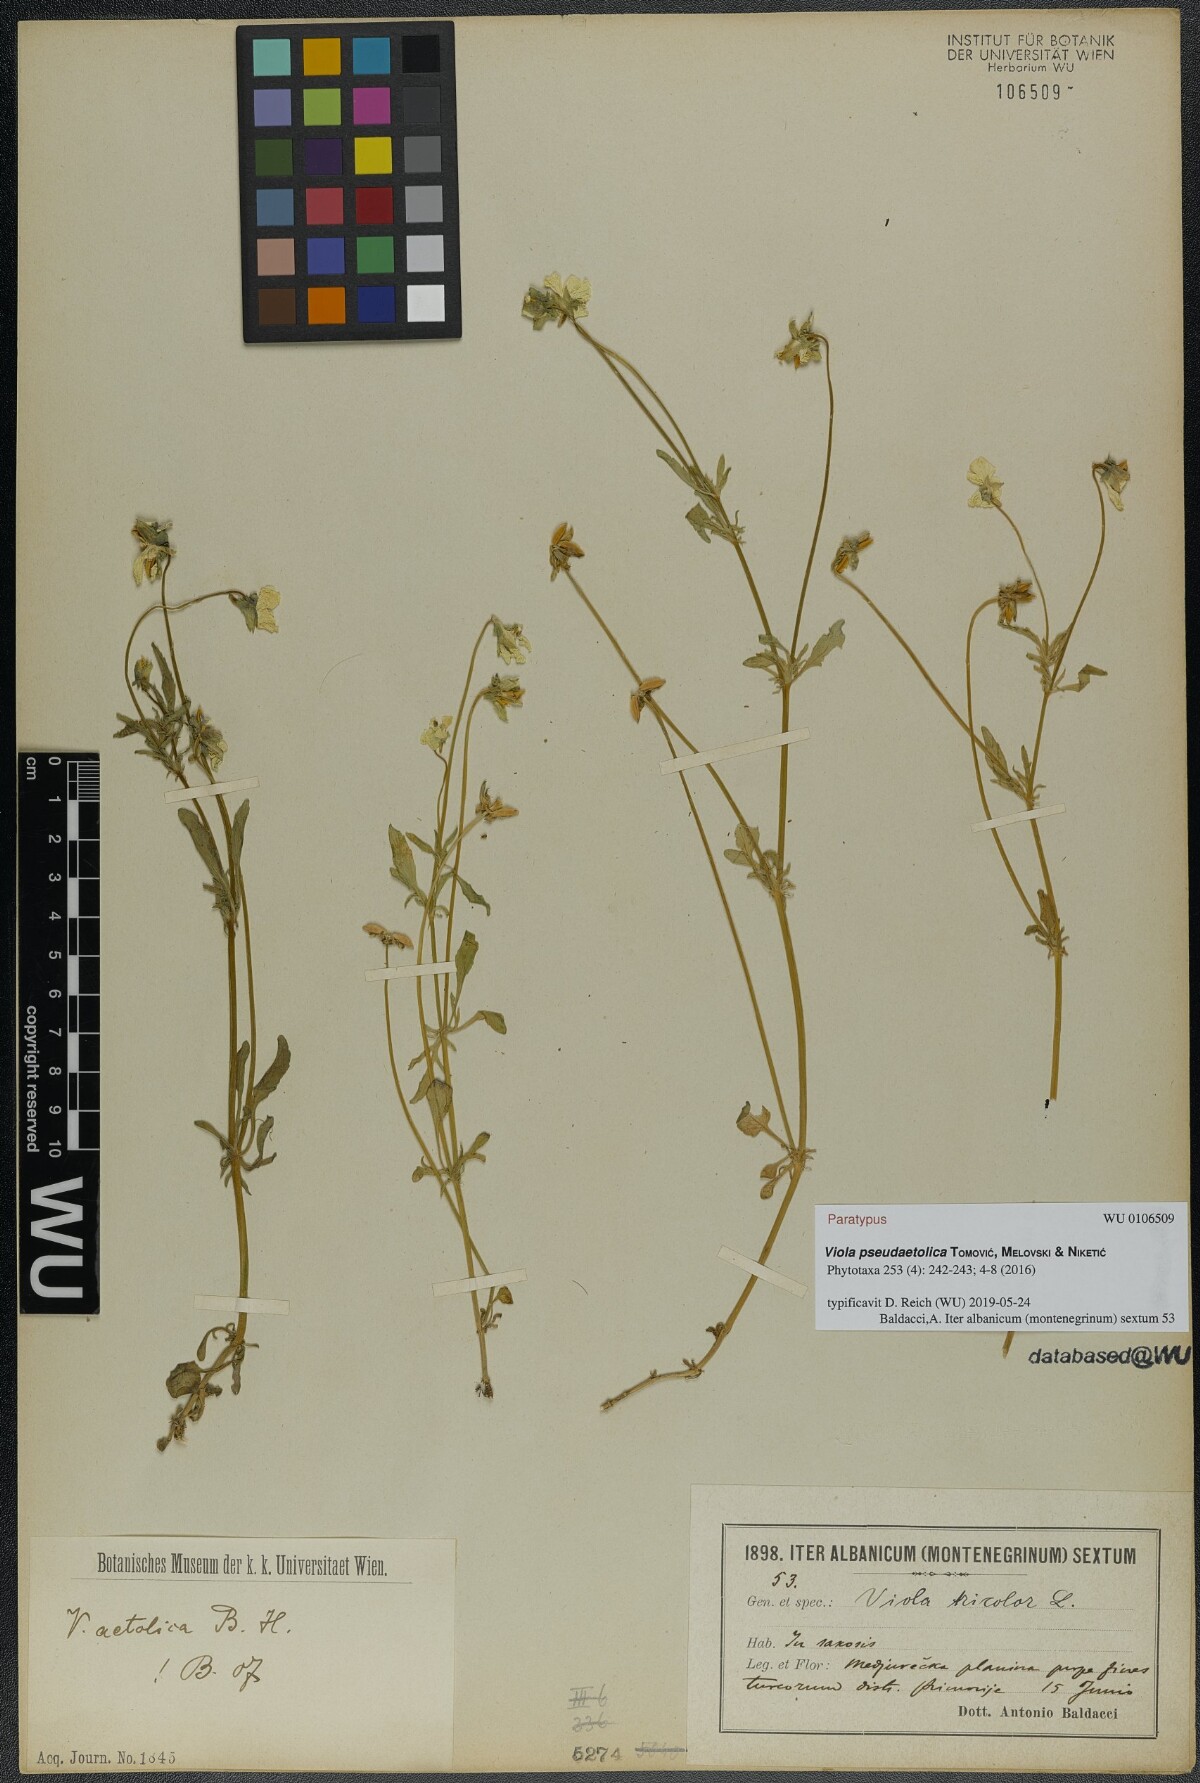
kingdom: Plantae
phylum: Tracheophyta
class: Magnoliopsida
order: Malpighiales
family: Violaceae
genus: Viola
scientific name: Viola pseudaetolica
